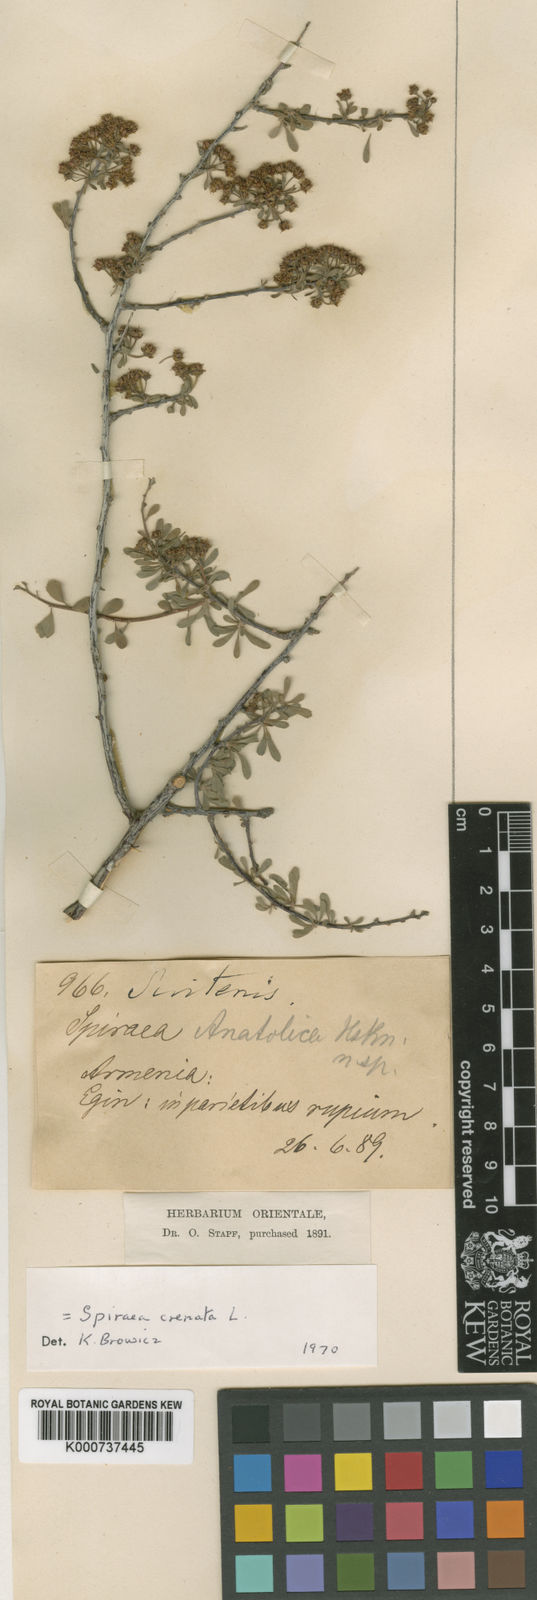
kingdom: Plantae
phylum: Tracheophyta
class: Magnoliopsida
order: Rosales
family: Rosaceae
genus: Spiraea
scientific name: Spiraea crenata
